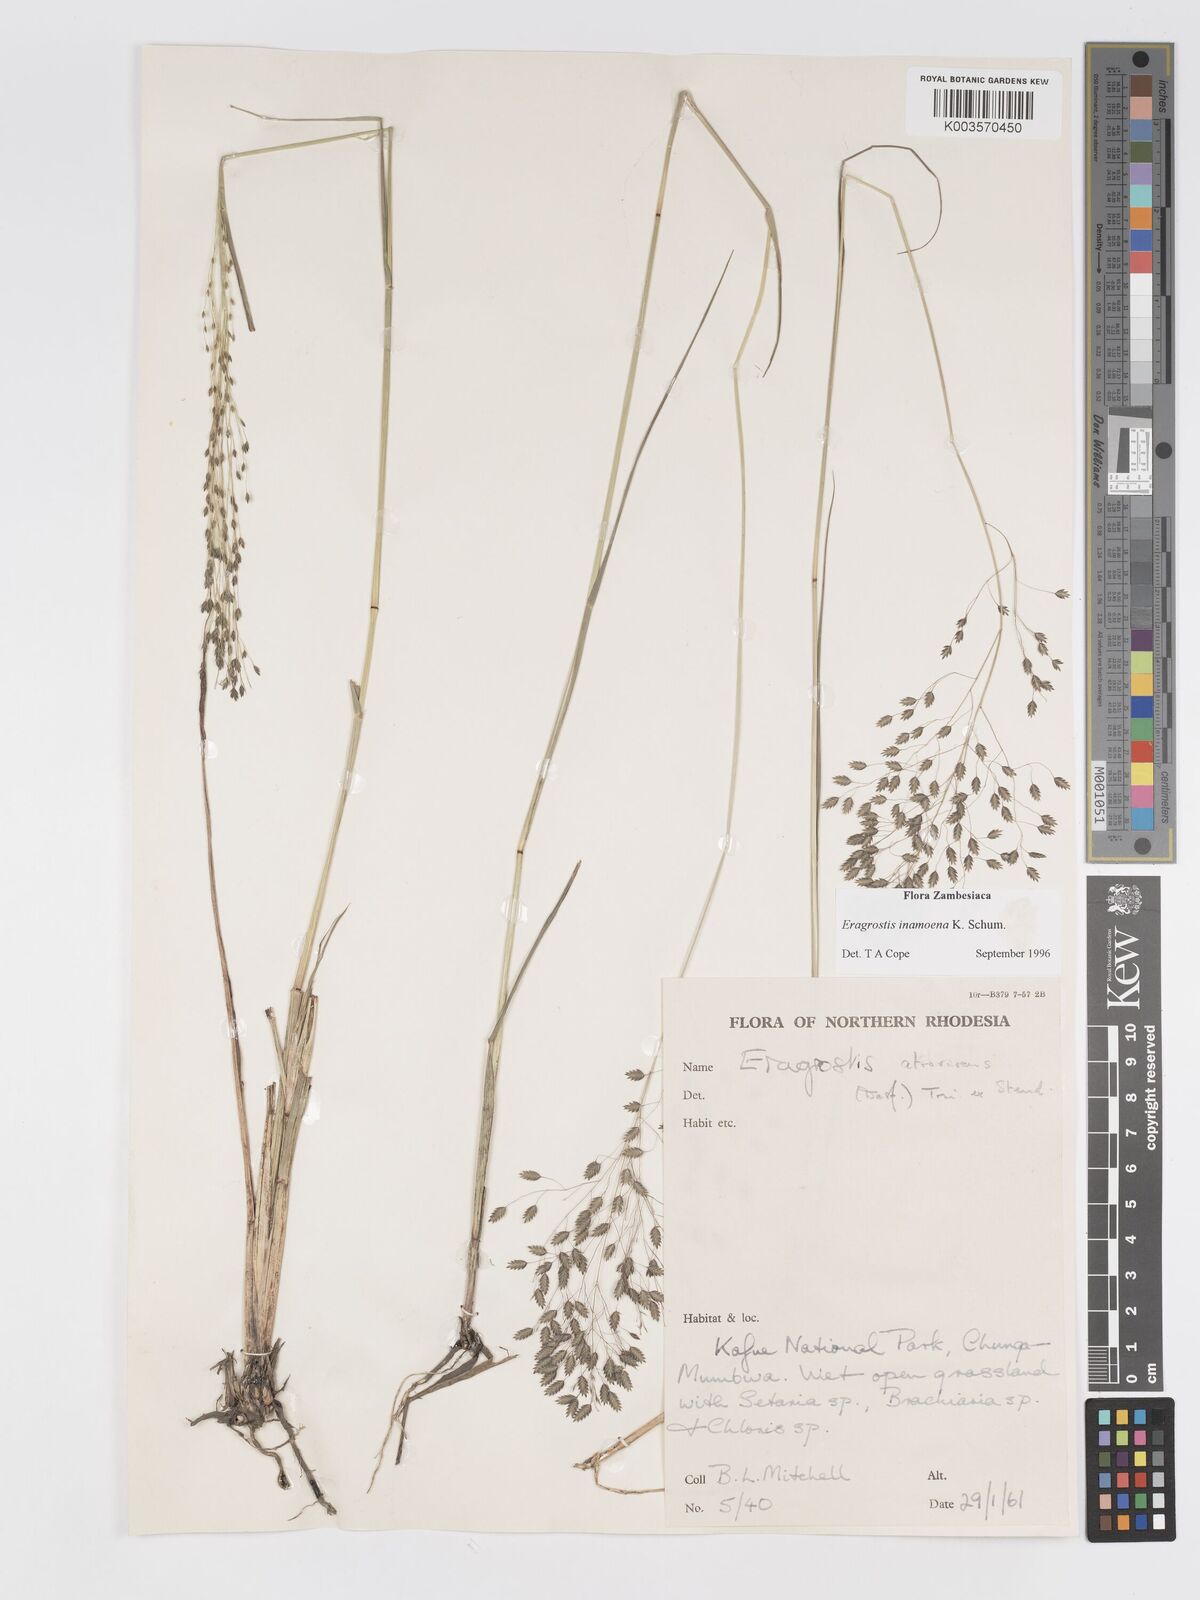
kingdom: Plantae
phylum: Tracheophyta
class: Liliopsida
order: Poales
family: Poaceae
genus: Eragrostis
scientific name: Eragrostis inamoena
